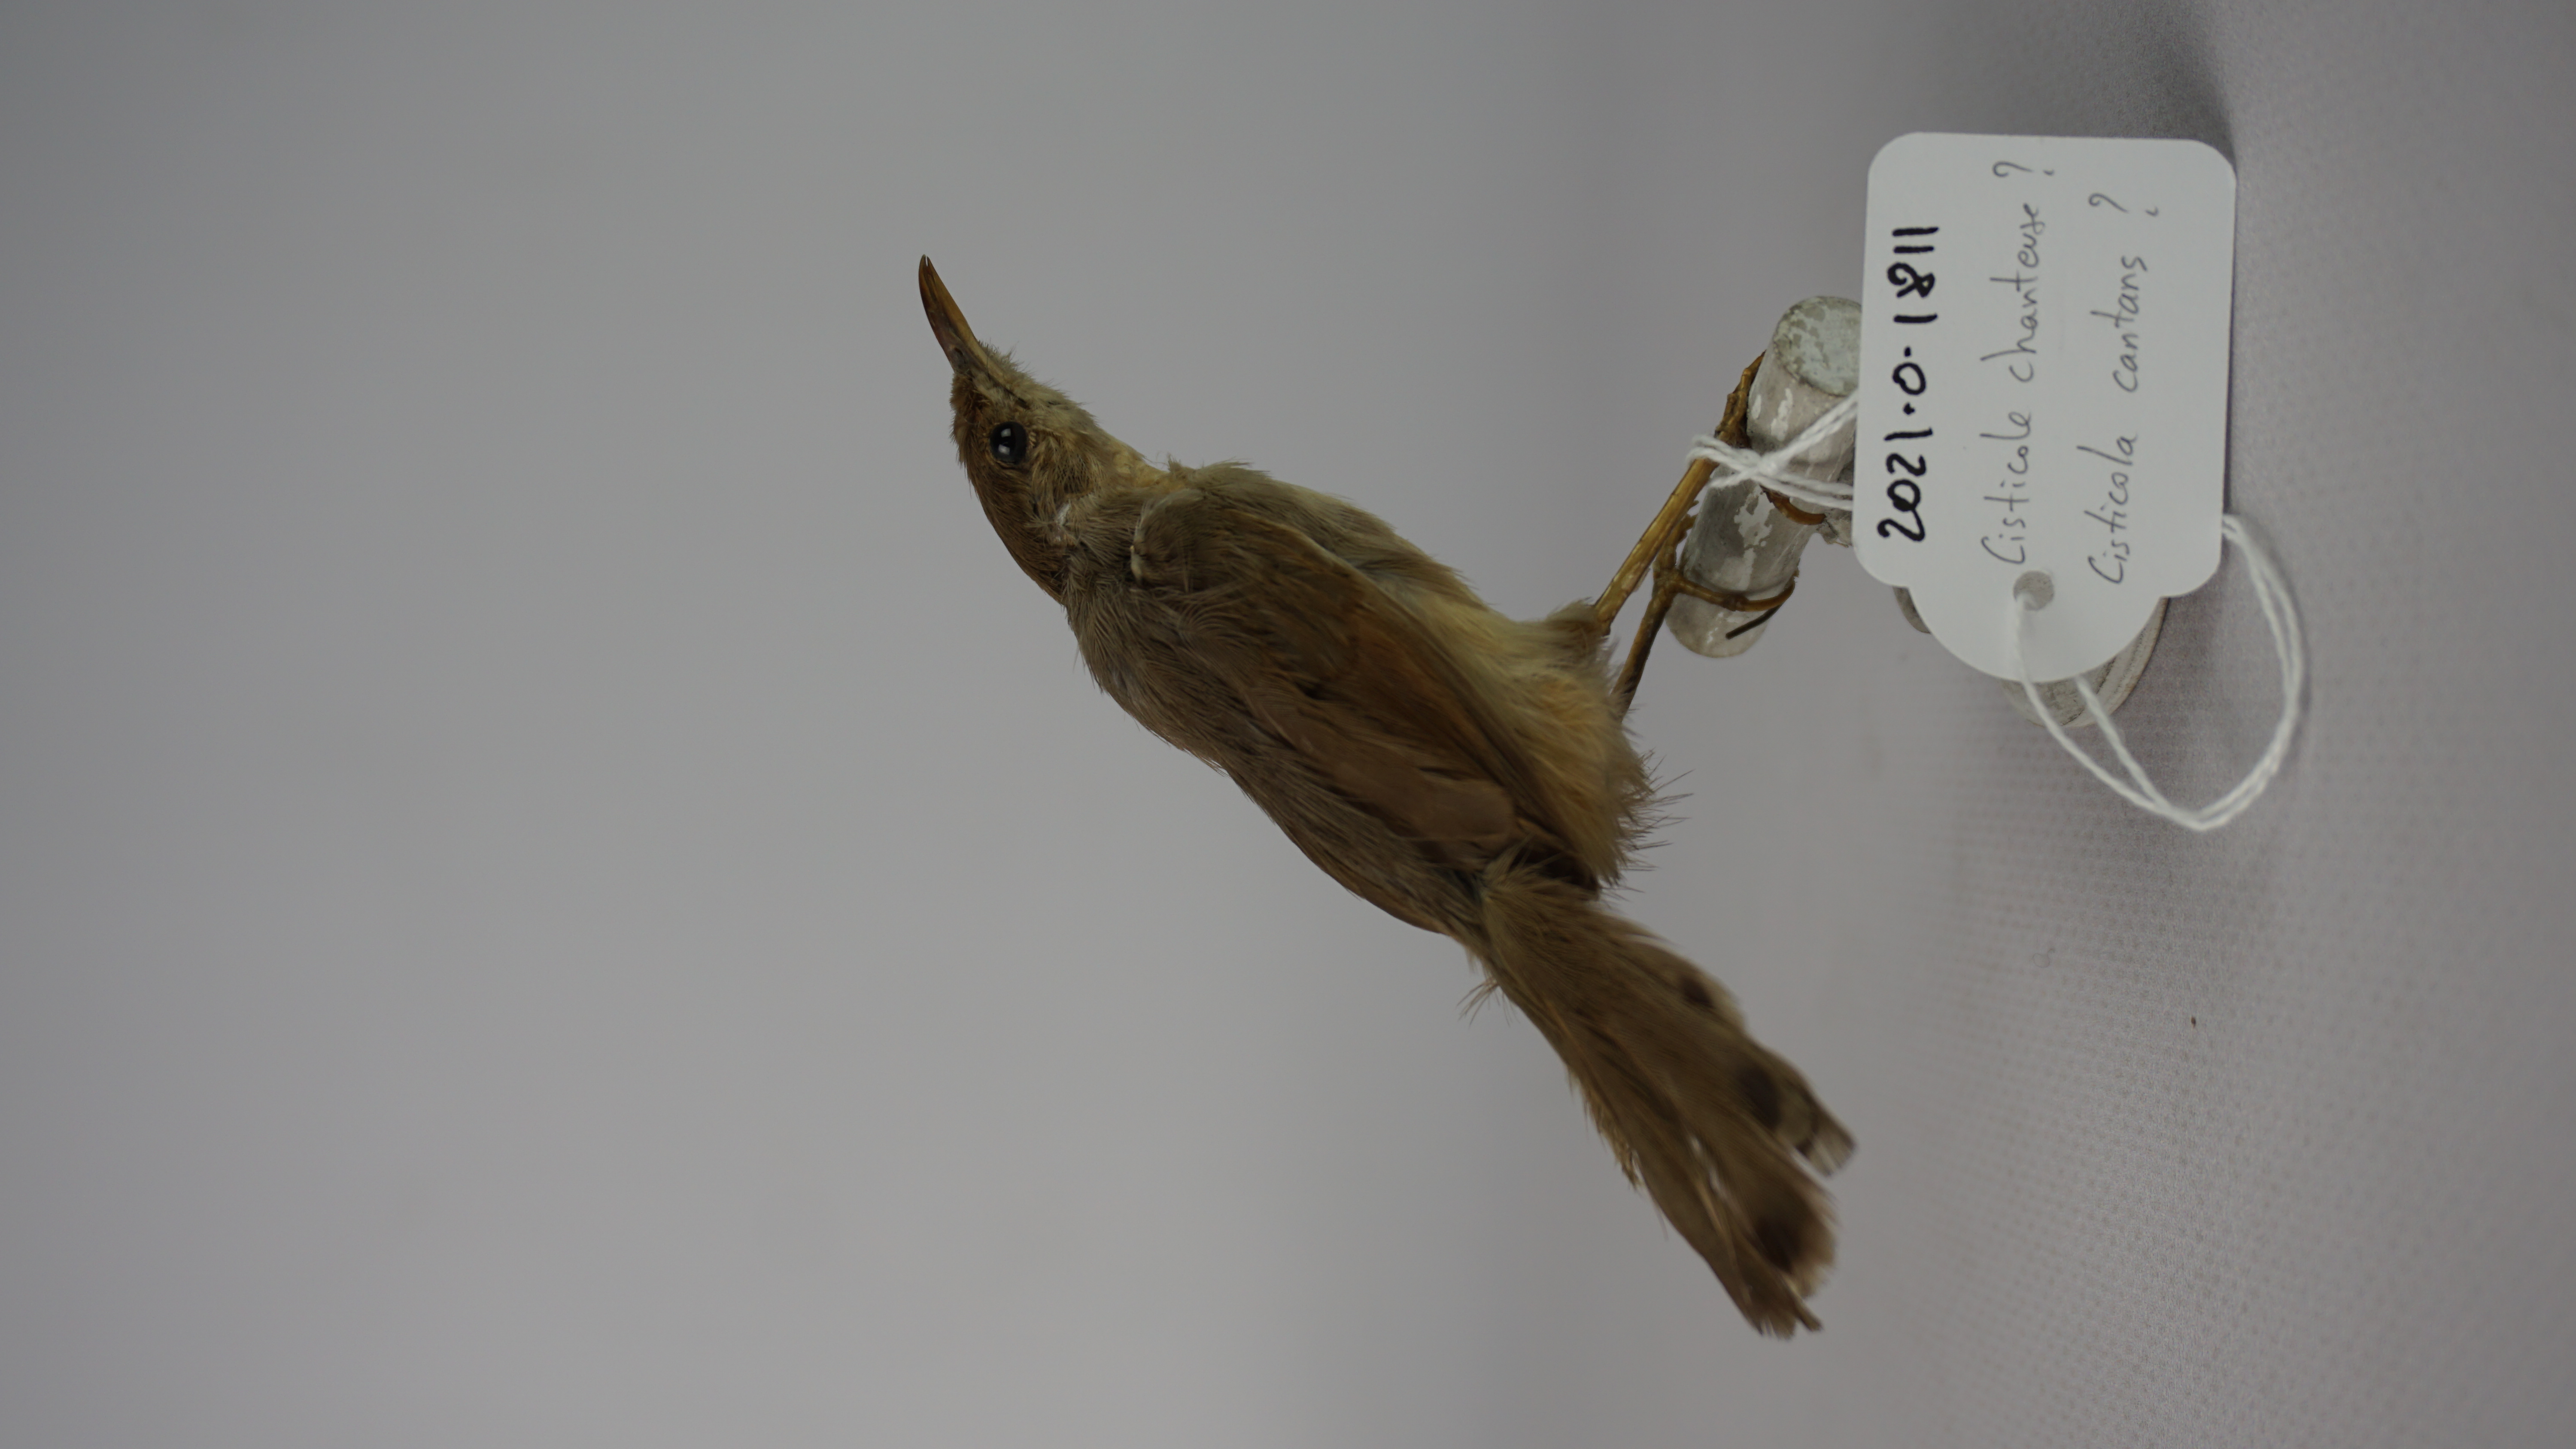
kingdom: Animalia
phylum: Chordata
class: Aves
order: Passeriformes
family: Cisticolidae
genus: Cisticola
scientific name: Cisticola cantans
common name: Singing cisticola
